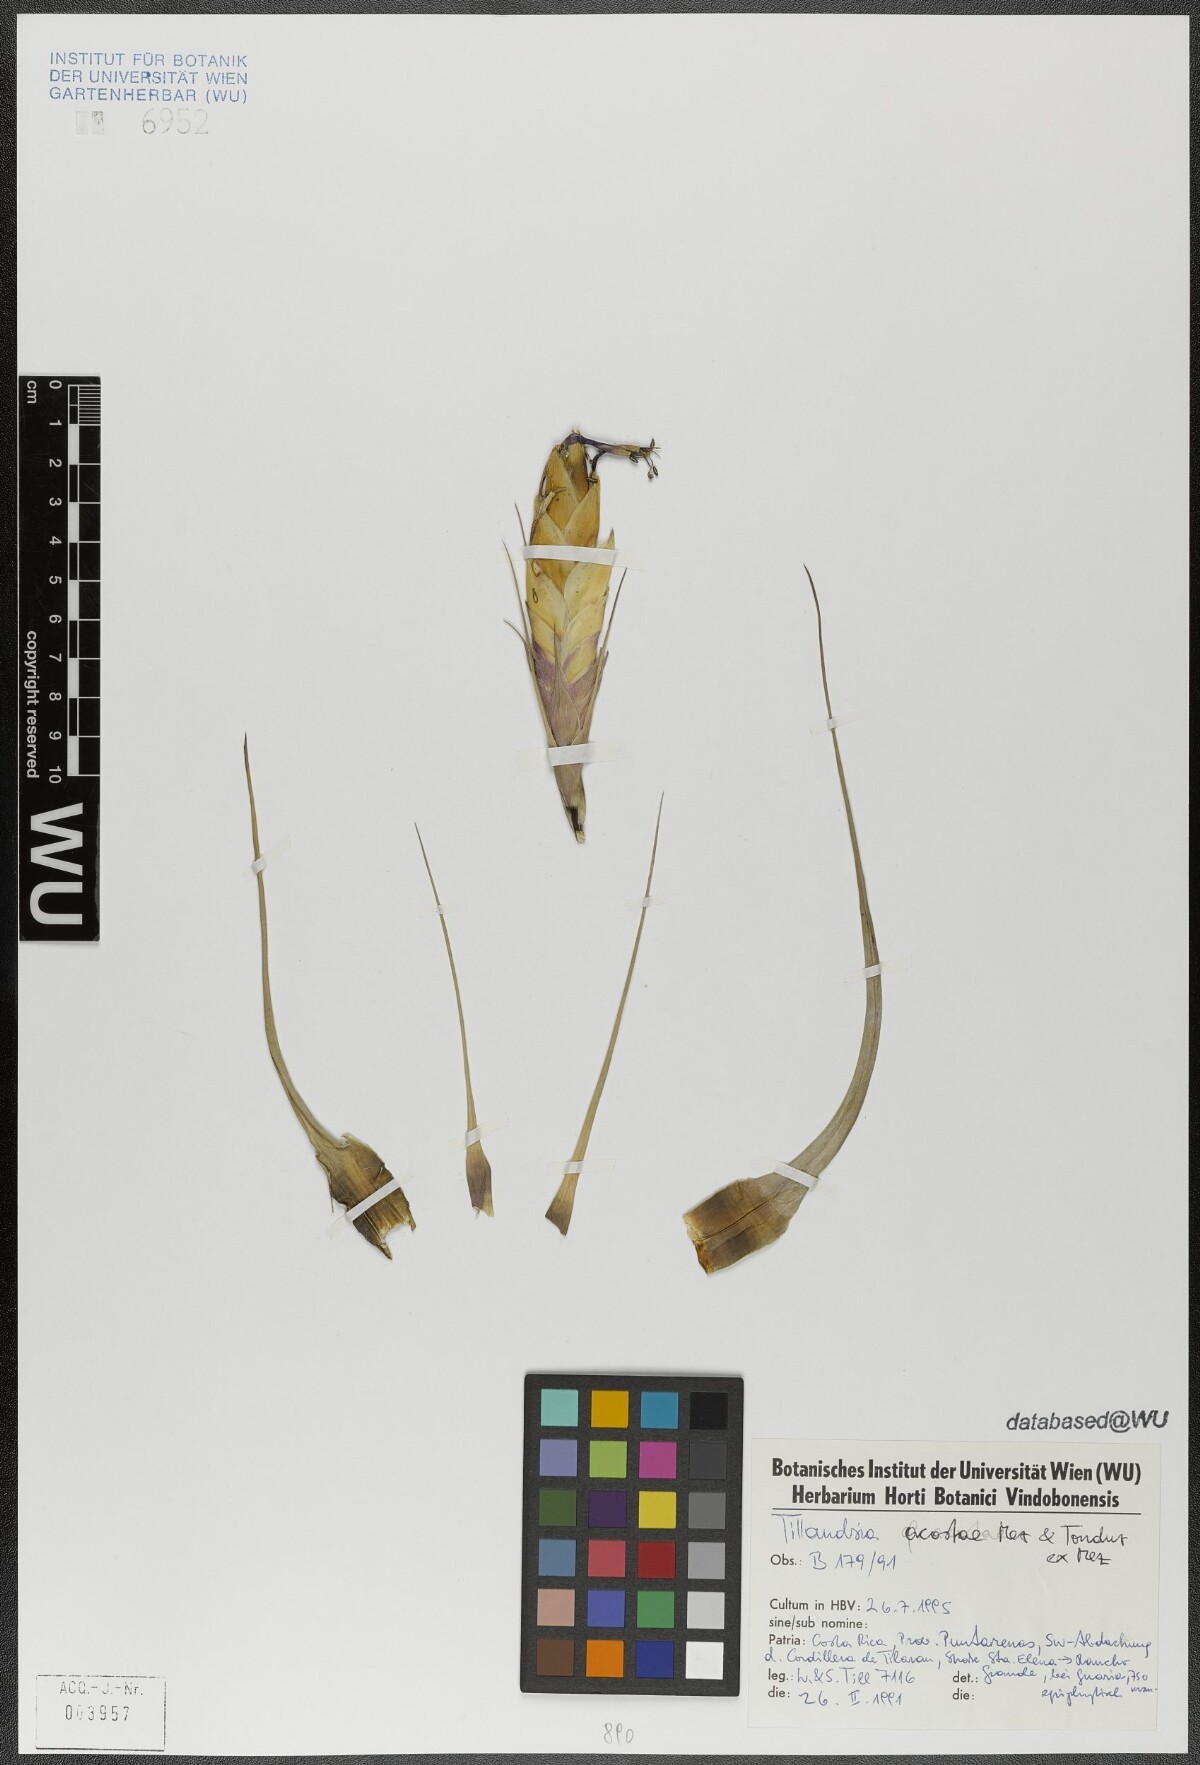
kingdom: Plantae
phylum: Tracheophyta
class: Liliopsida
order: Poales
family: Bromeliaceae
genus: Tillandsia
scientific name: Tillandsia rhomboidea
